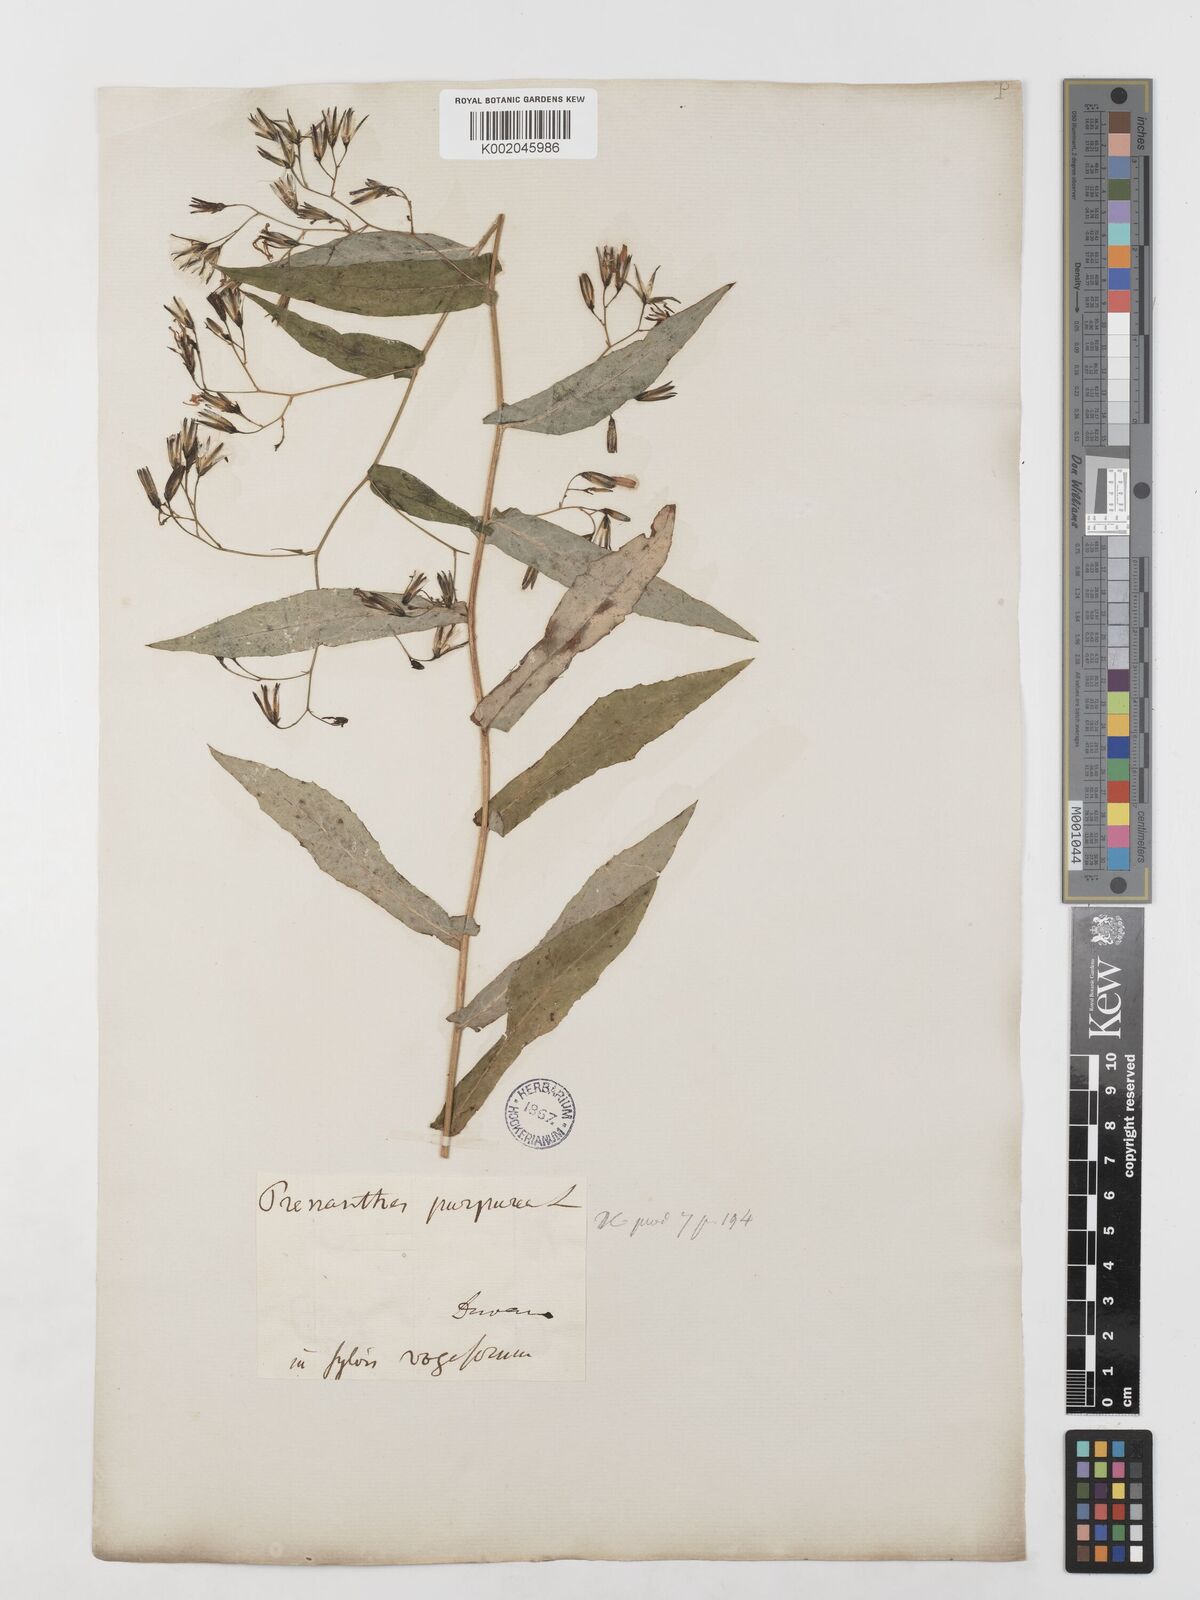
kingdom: Plantae
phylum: Tracheophyta
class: Magnoliopsida
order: Asterales
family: Asteraceae
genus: Prenanthes
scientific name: Prenanthes purpurea
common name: Purple lettuce
